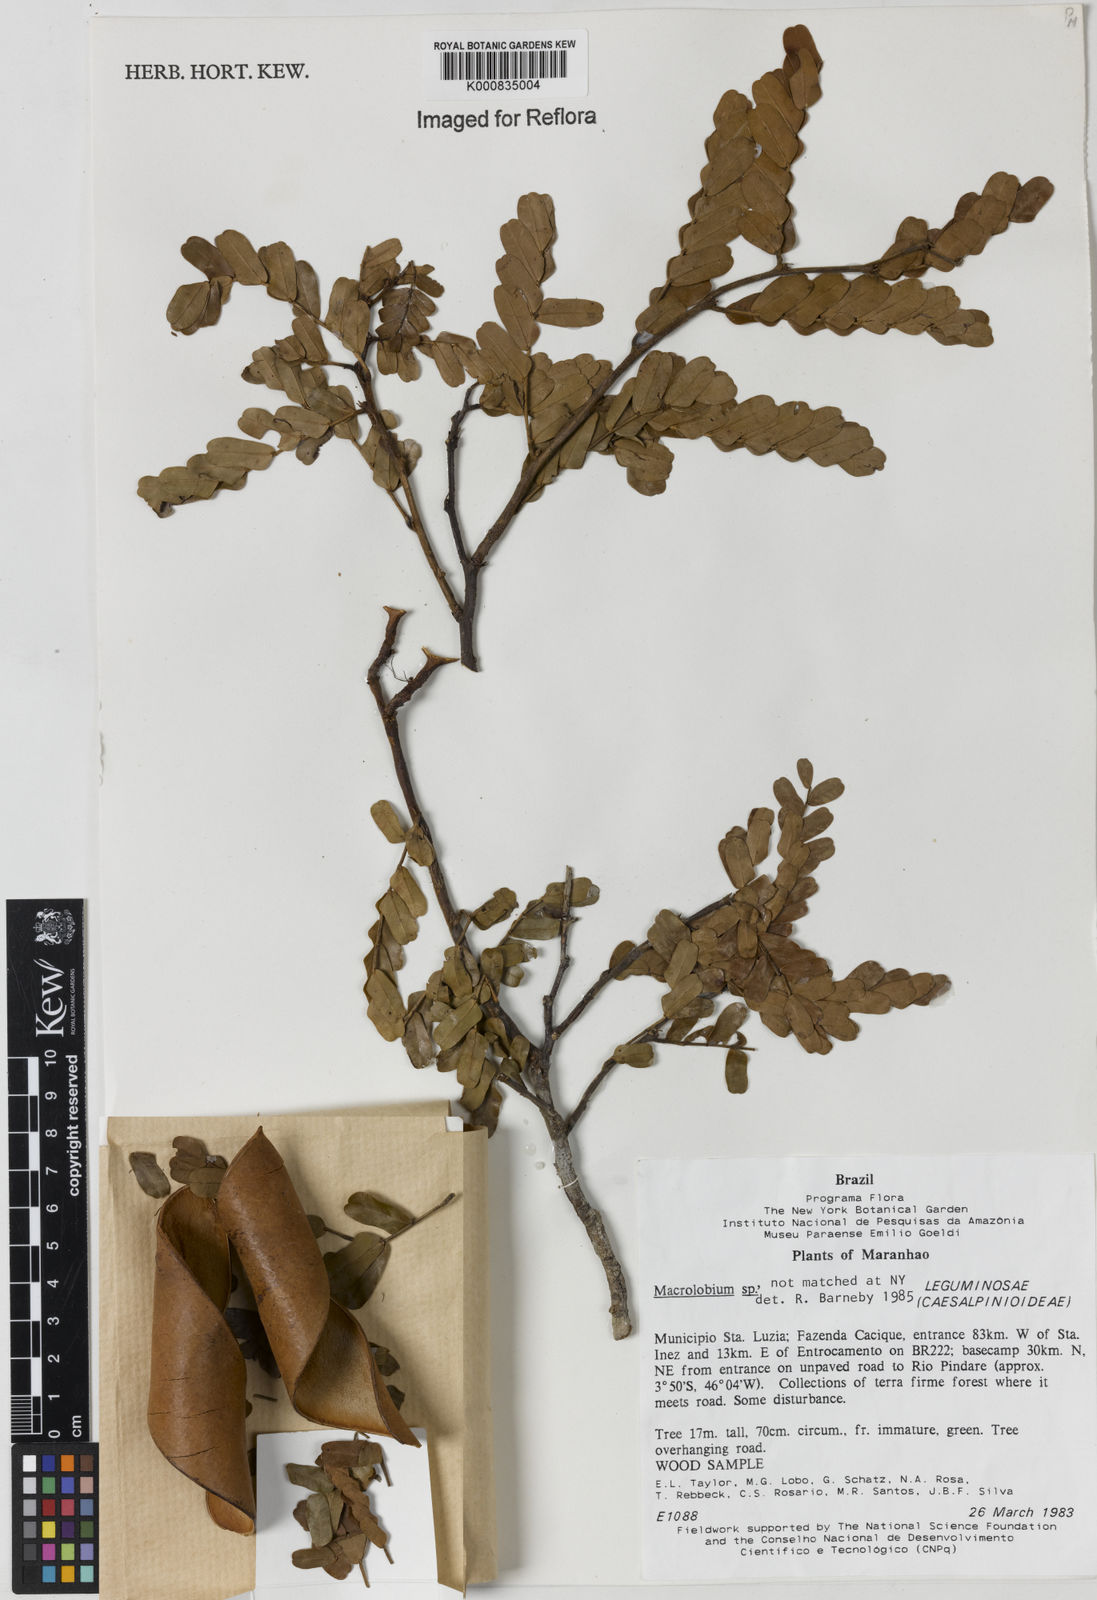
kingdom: Plantae
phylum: Tracheophyta
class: Magnoliopsida
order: Fabales
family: Fabaceae
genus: Macrolobium
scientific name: Macrolobium
